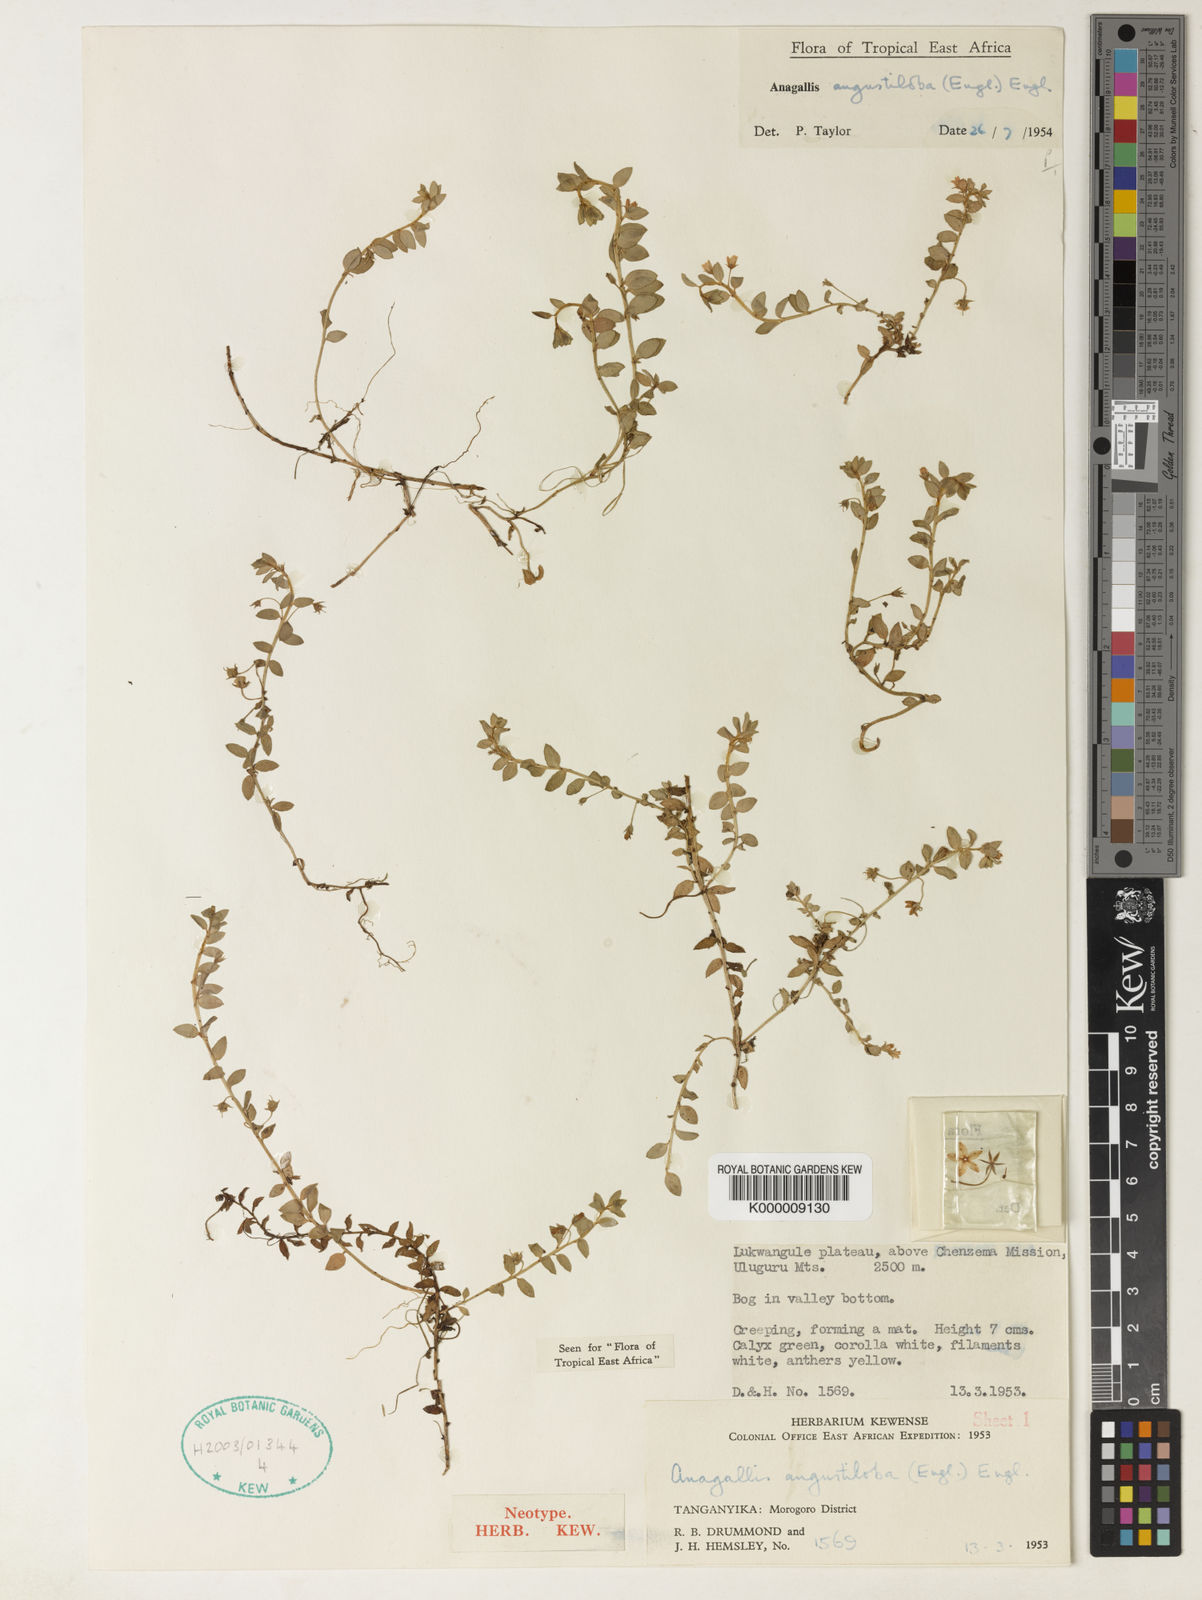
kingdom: Plantae
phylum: Tracheophyta
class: Magnoliopsida
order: Ericales
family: Primulaceae
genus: Lysimachia
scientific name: Lysimachia angustiloba
